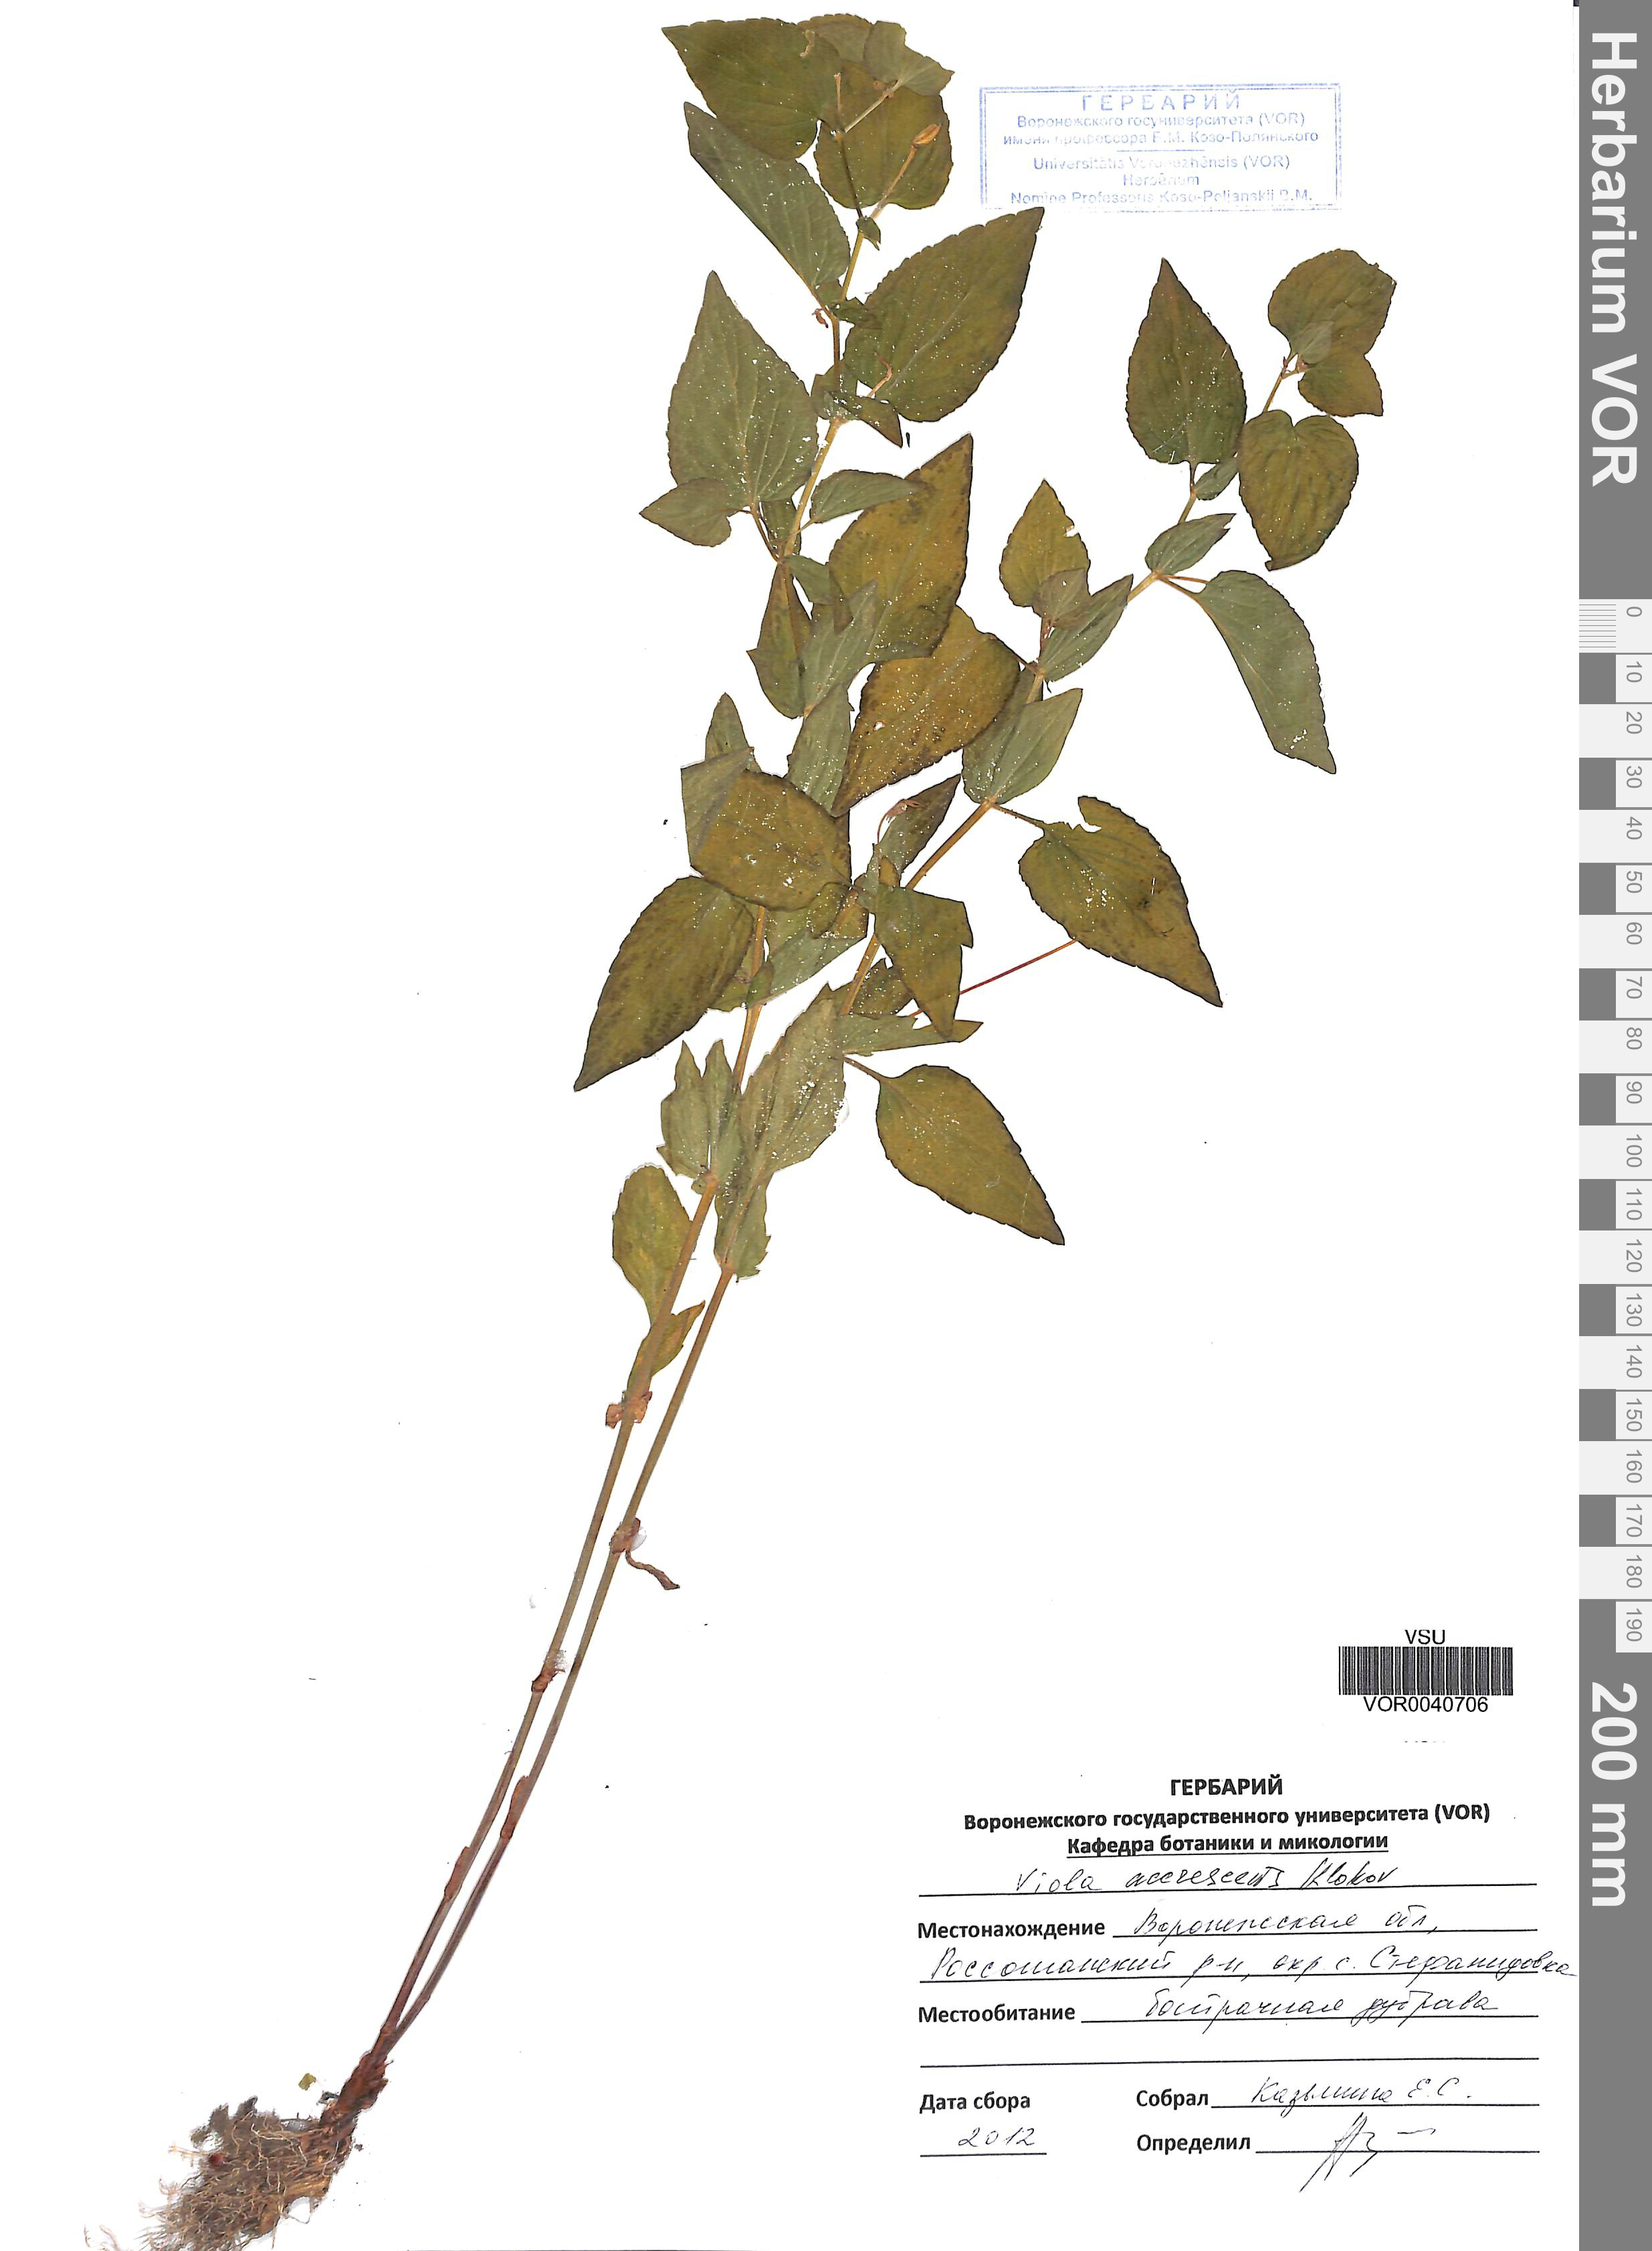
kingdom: Plantae
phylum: Tracheophyta
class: Magnoliopsida
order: Malpighiales
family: Violaceae
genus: Viola
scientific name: Viola pumila
